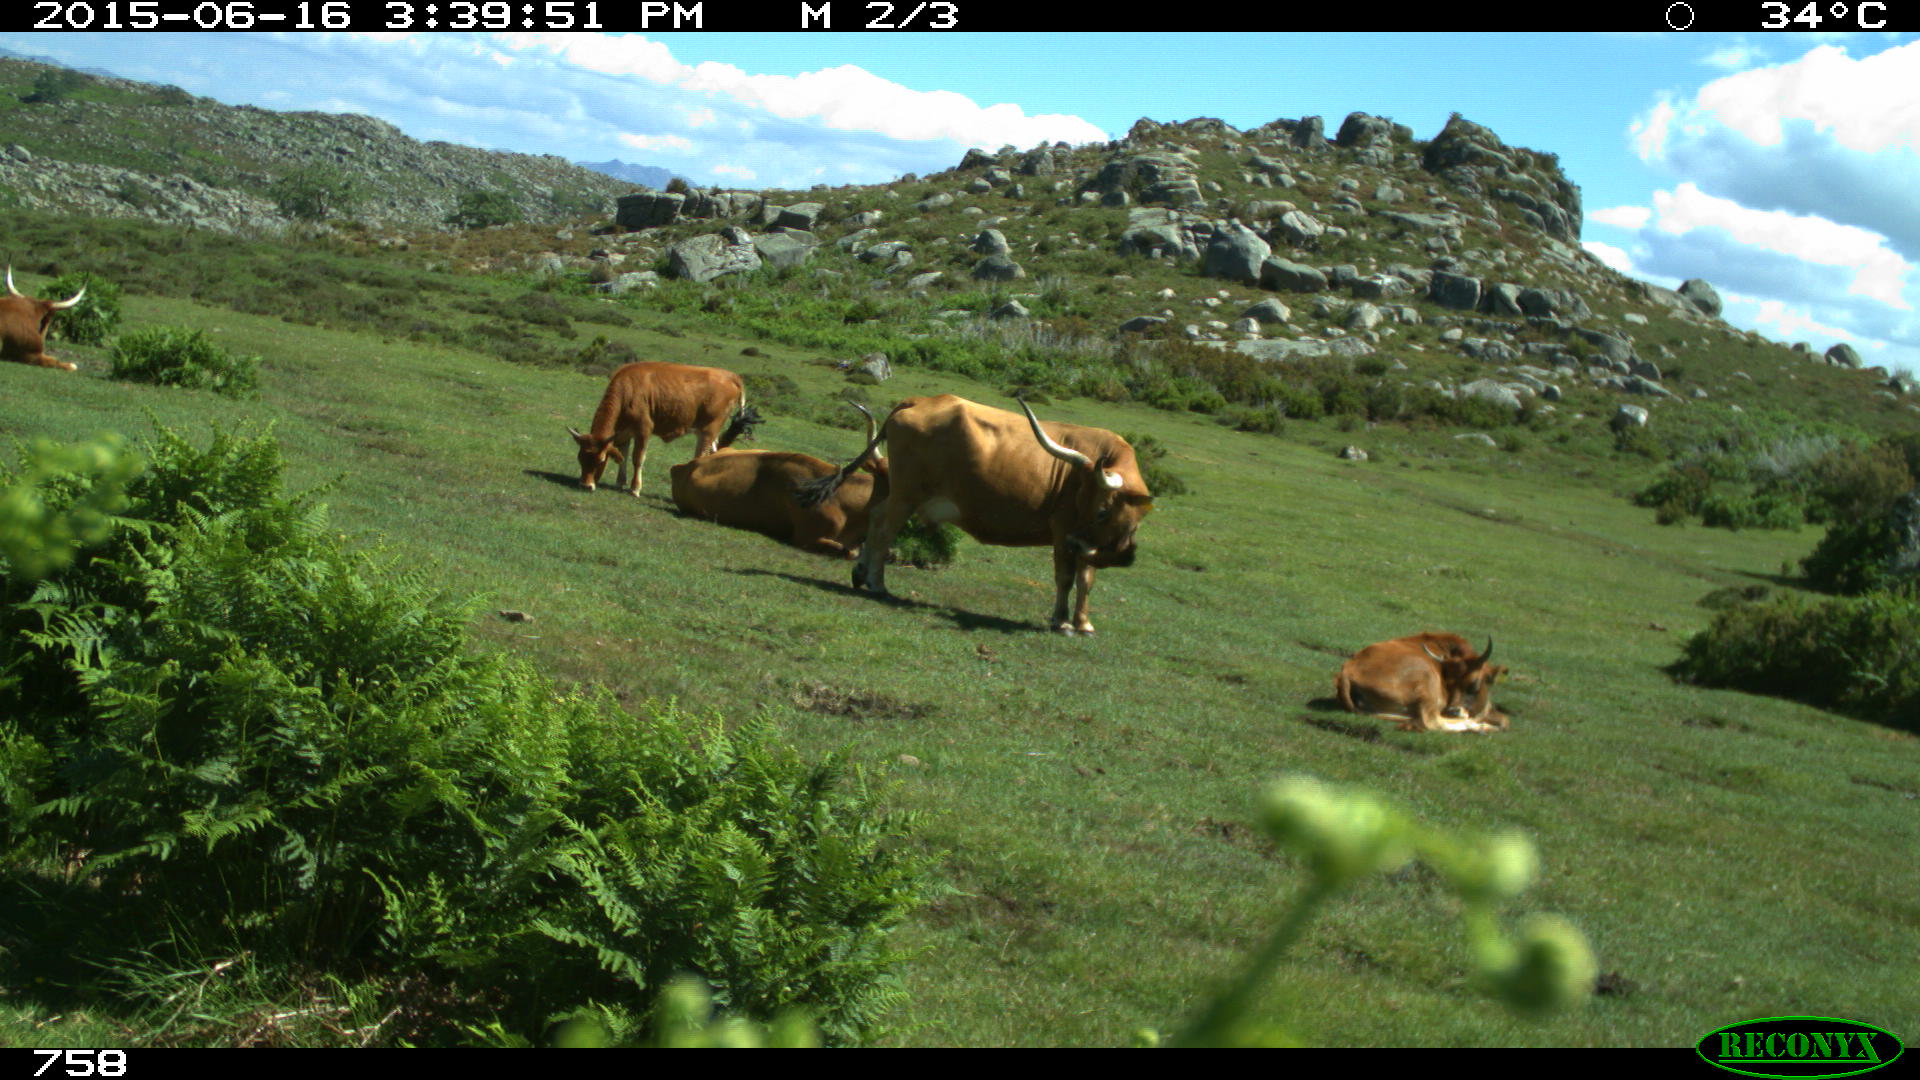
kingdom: Animalia
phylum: Chordata
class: Mammalia
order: Artiodactyla
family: Bovidae
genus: Bos
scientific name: Bos taurus
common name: Domesticated cattle
